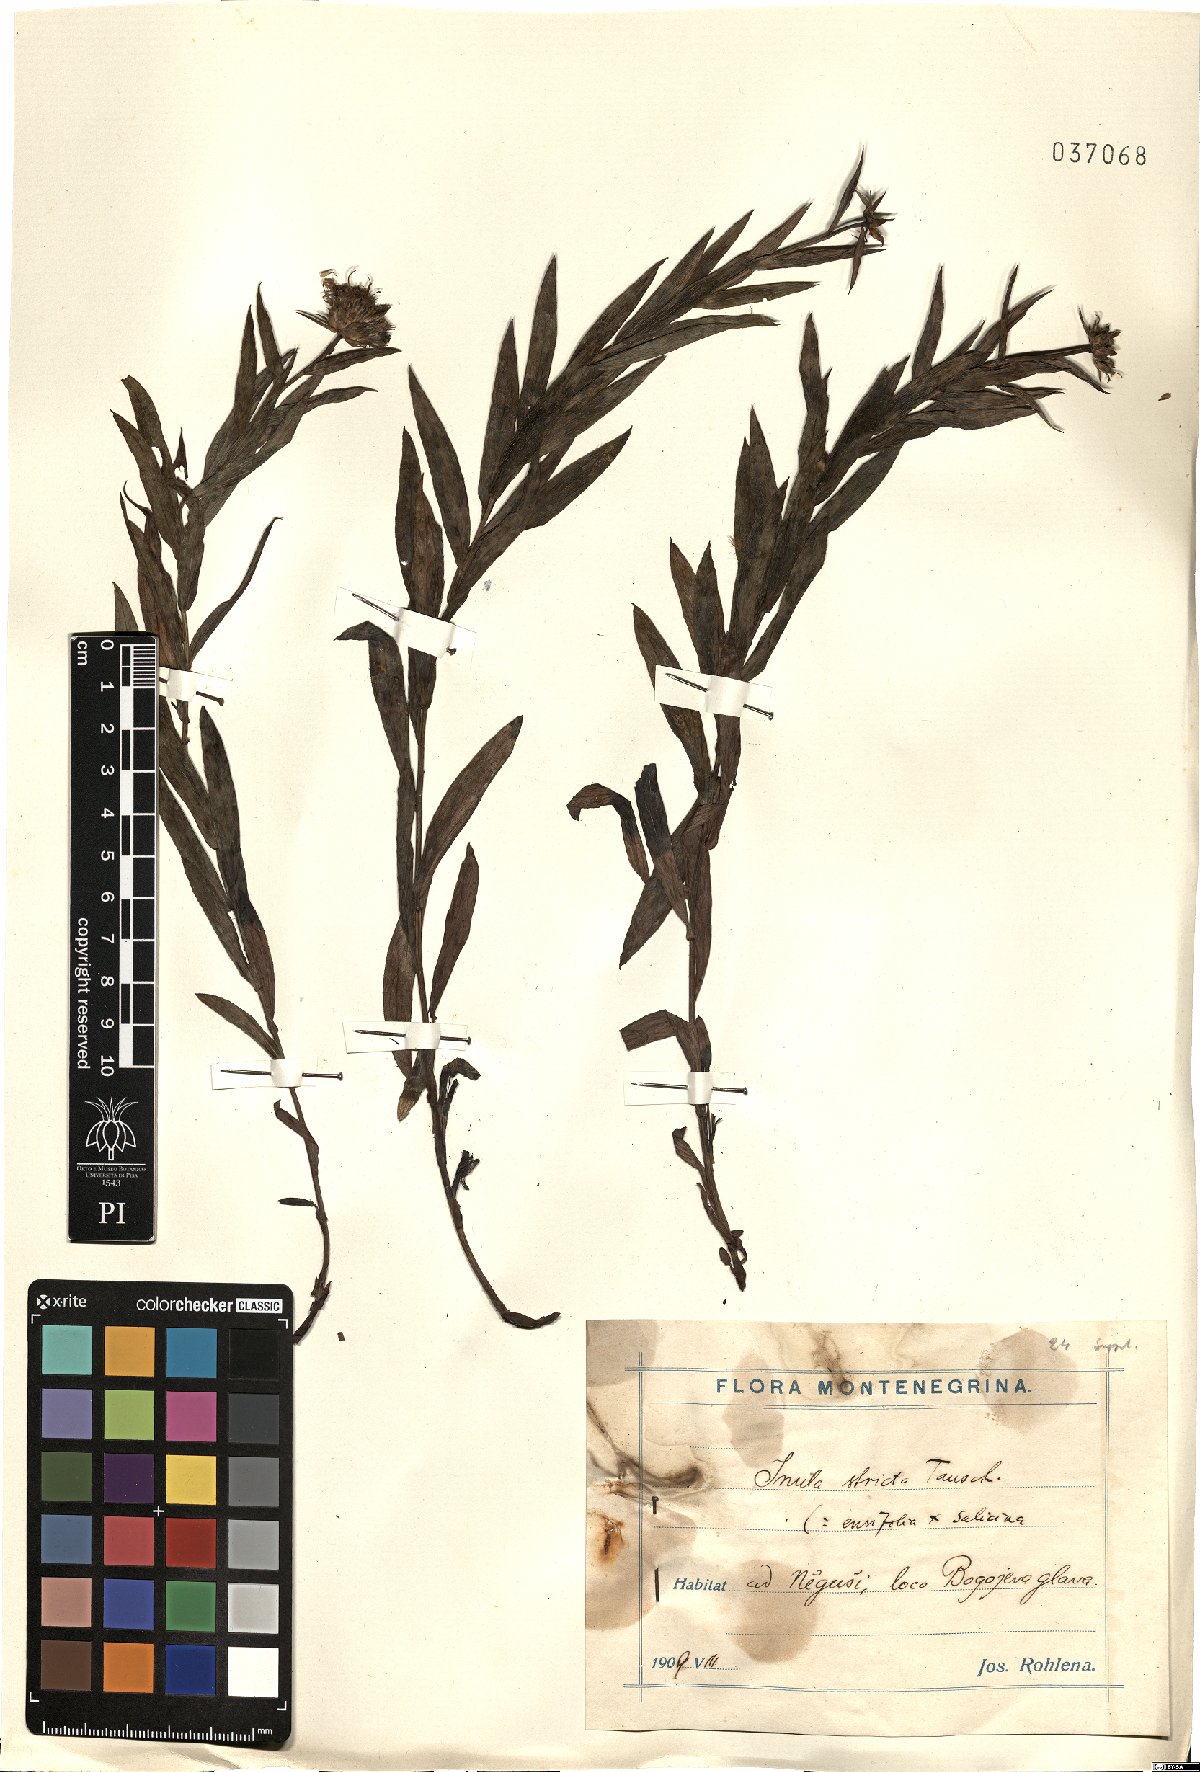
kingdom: Plantae
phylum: Tracheophyta
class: Magnoliopsida
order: Asterales
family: Asteraceae
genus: Pentanema
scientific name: Pentanema strictum
